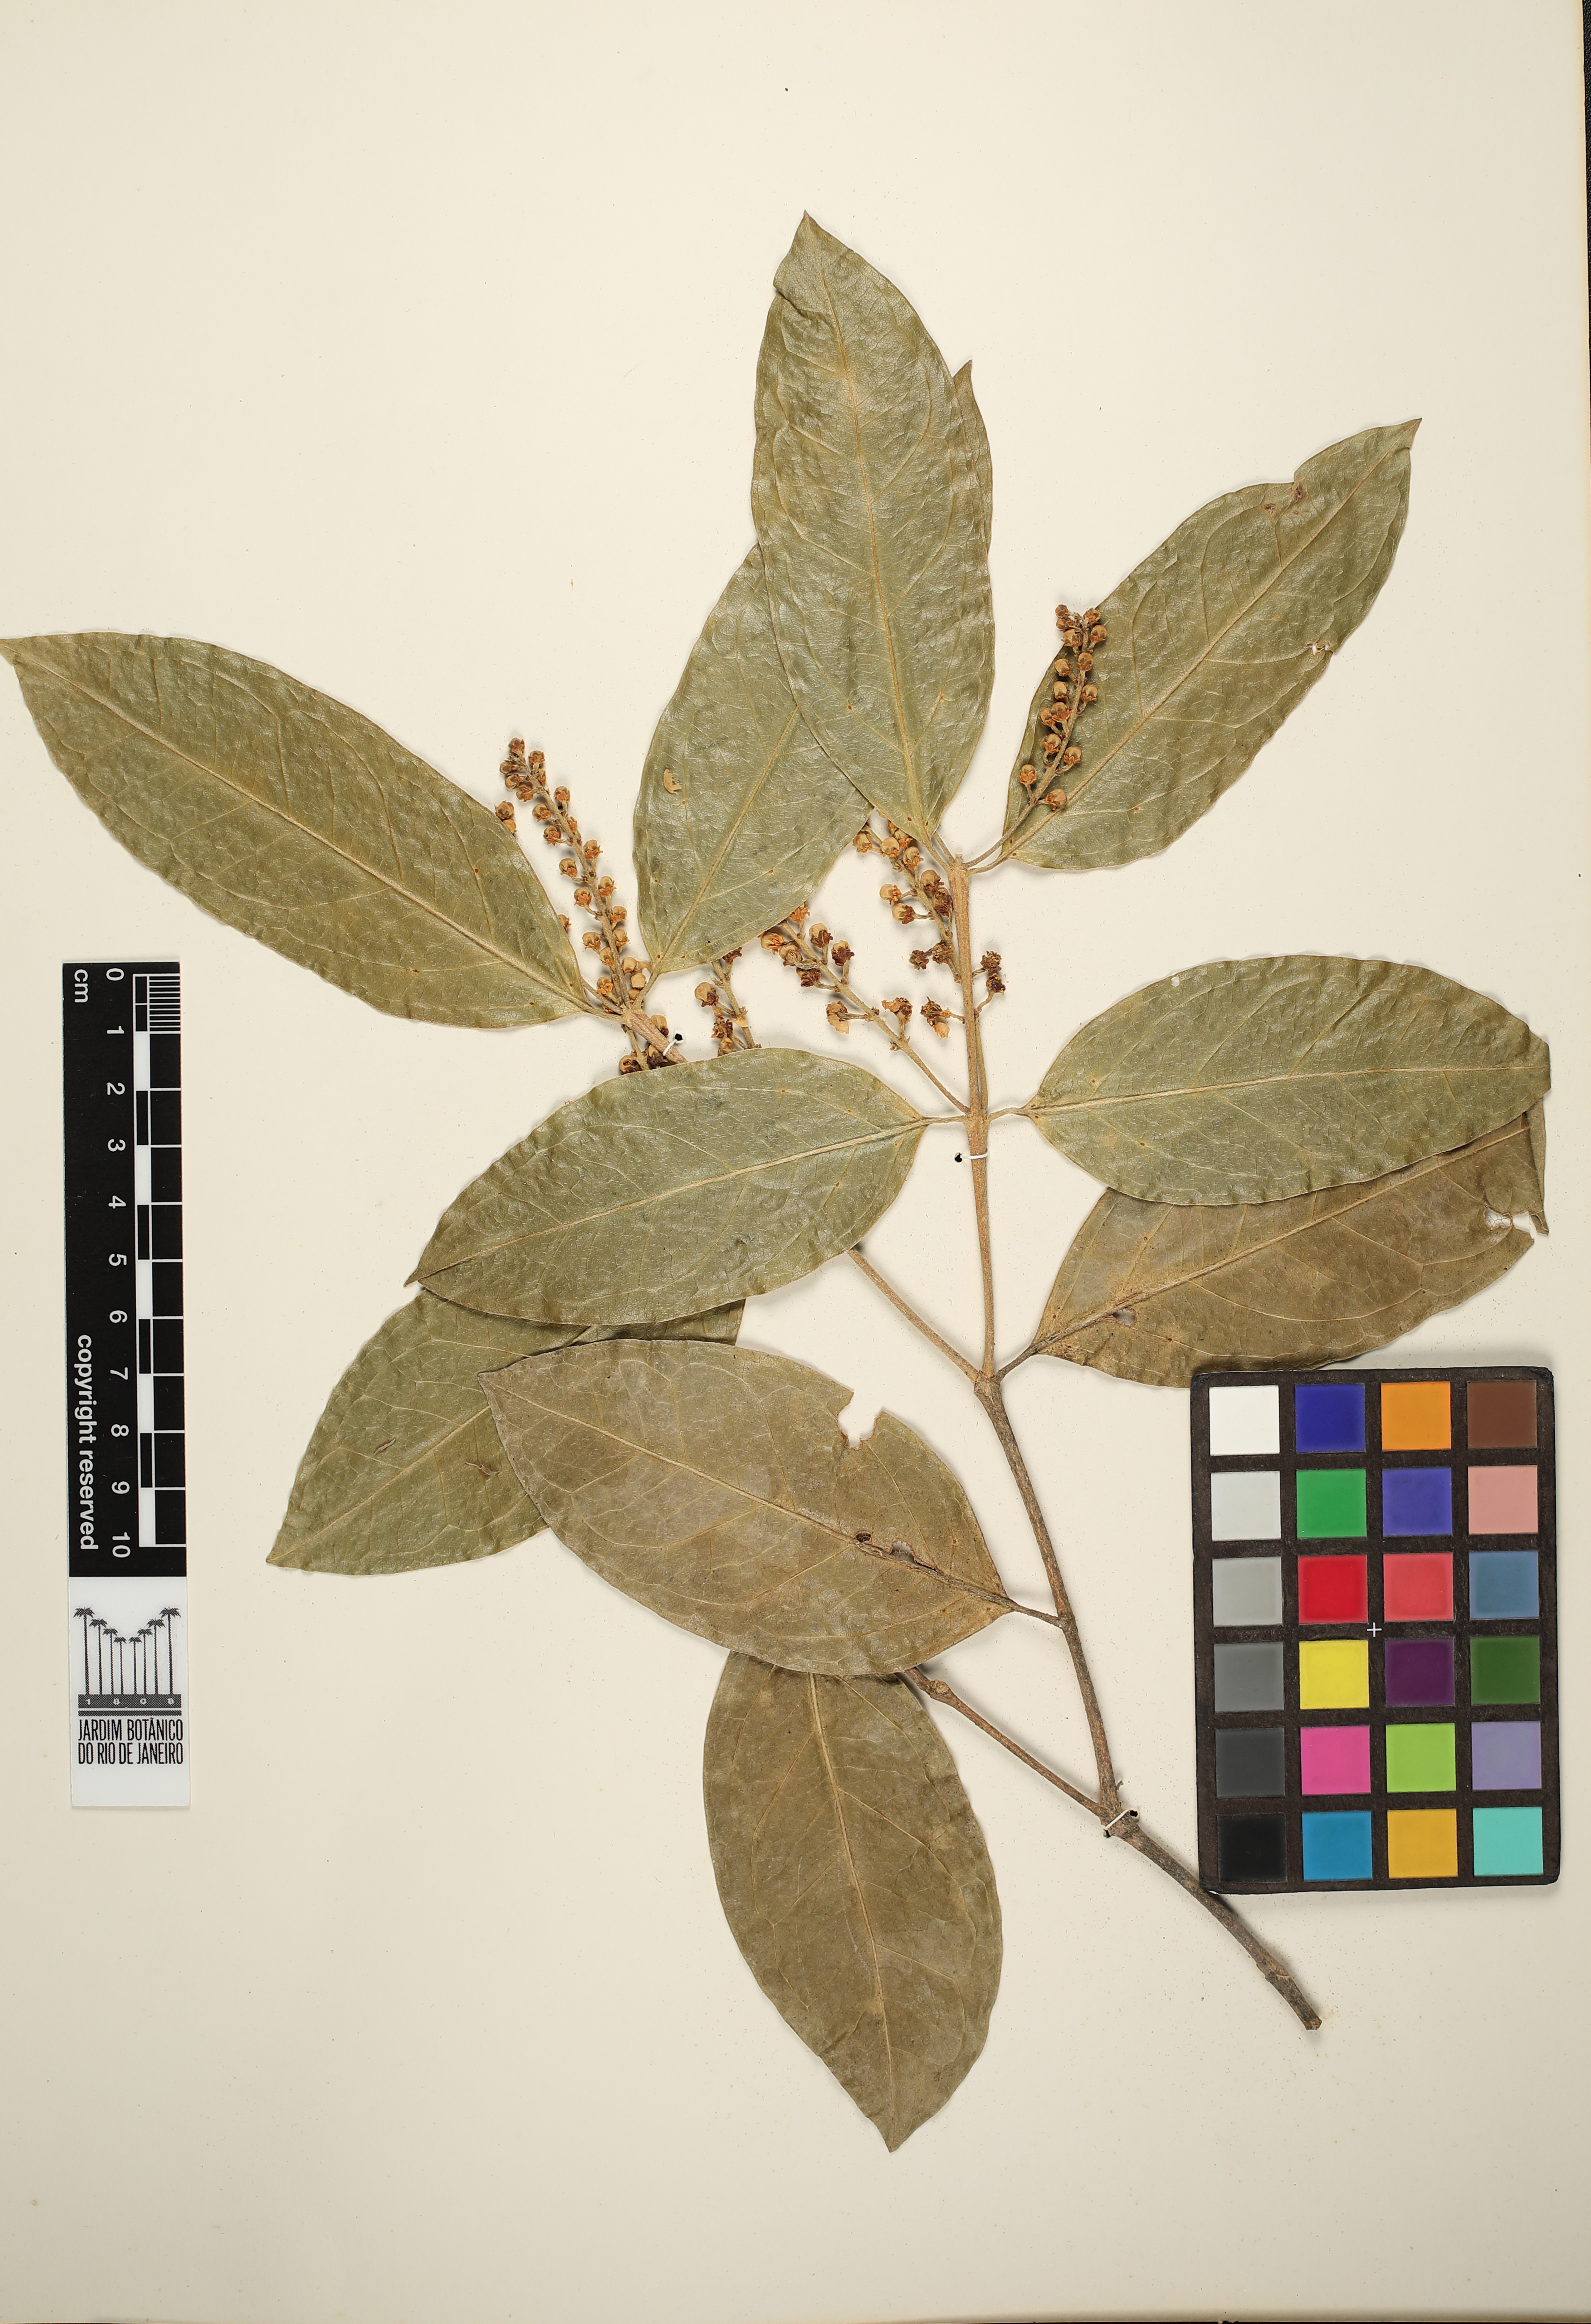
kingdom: Plantae
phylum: Tracheophyta
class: Magnoliopsida
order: Malpighiales
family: Malpighiaceae
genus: Bunchosia
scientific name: Bunchosia
